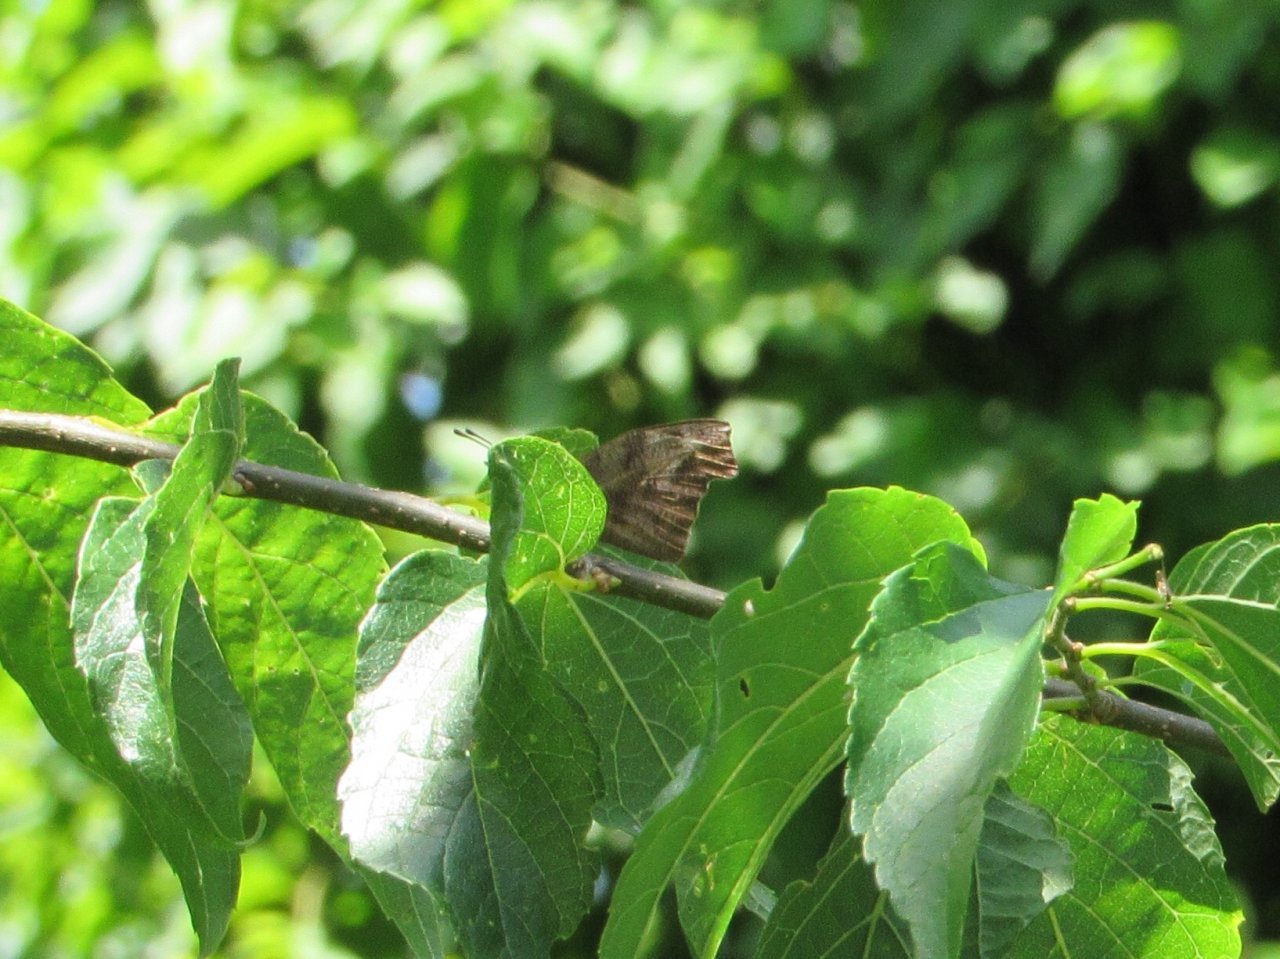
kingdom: Animalia
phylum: Arthropoda
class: Insecta
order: Lepidoptera
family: Nymphalidae
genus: Libytheana
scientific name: Libytheana carinenta
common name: American Snout
